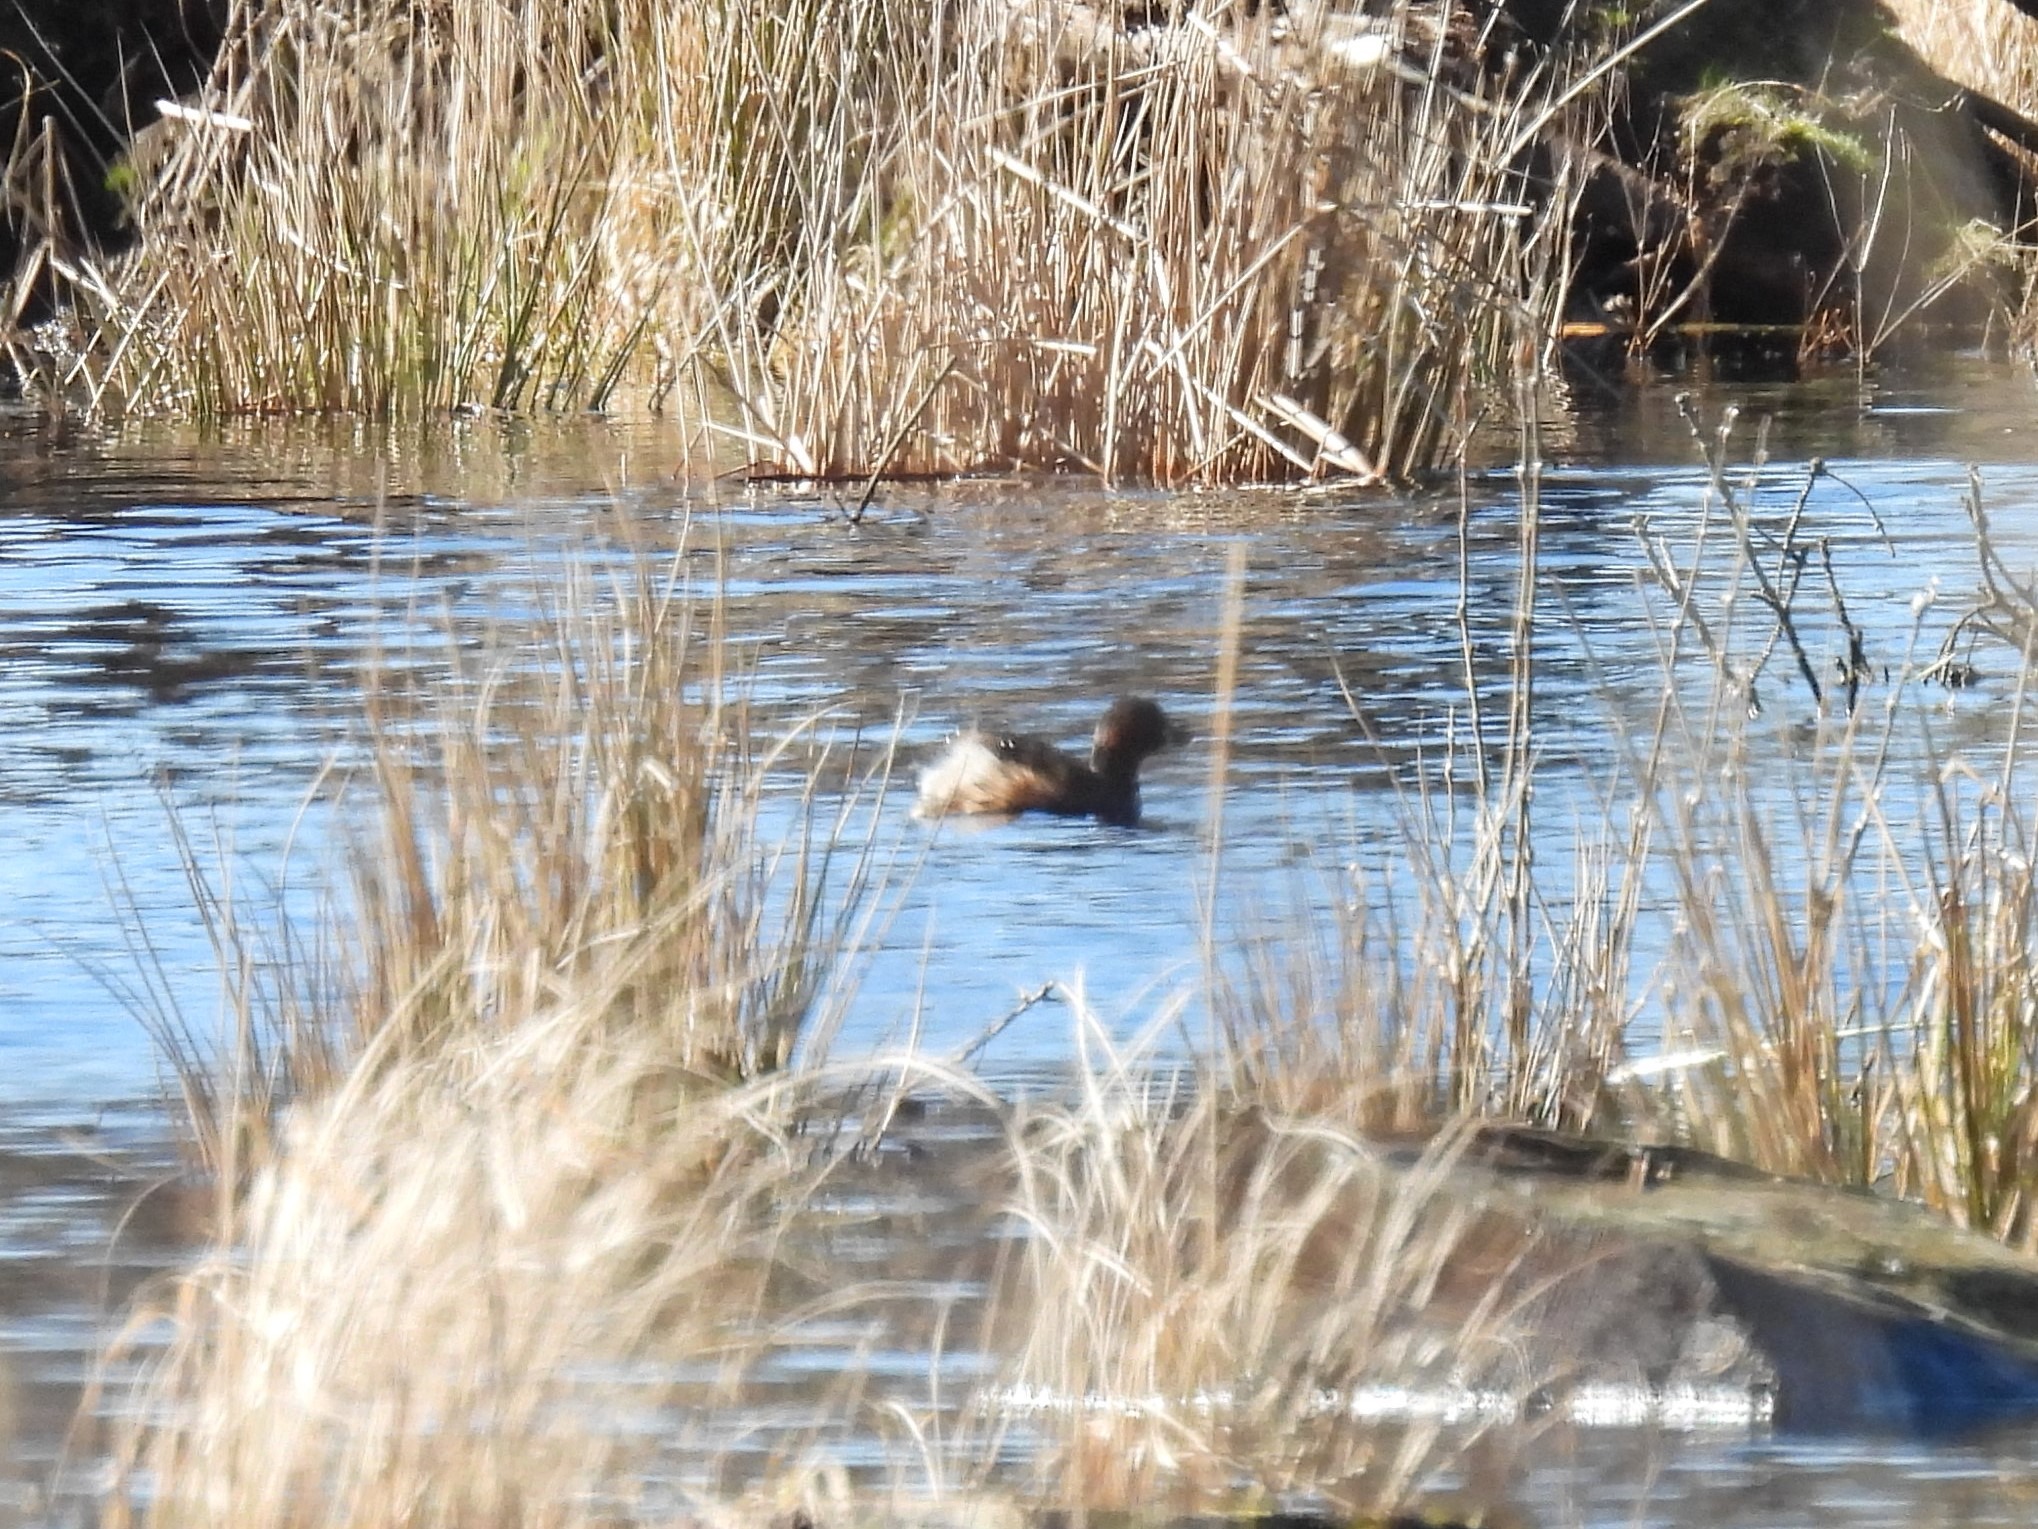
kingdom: Animalia
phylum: Chordata
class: Aves
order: Podicipediformes
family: Podicipedidae
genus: Tachybaptus
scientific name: Tachybaptus ruficollis
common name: Lille lappedykker
